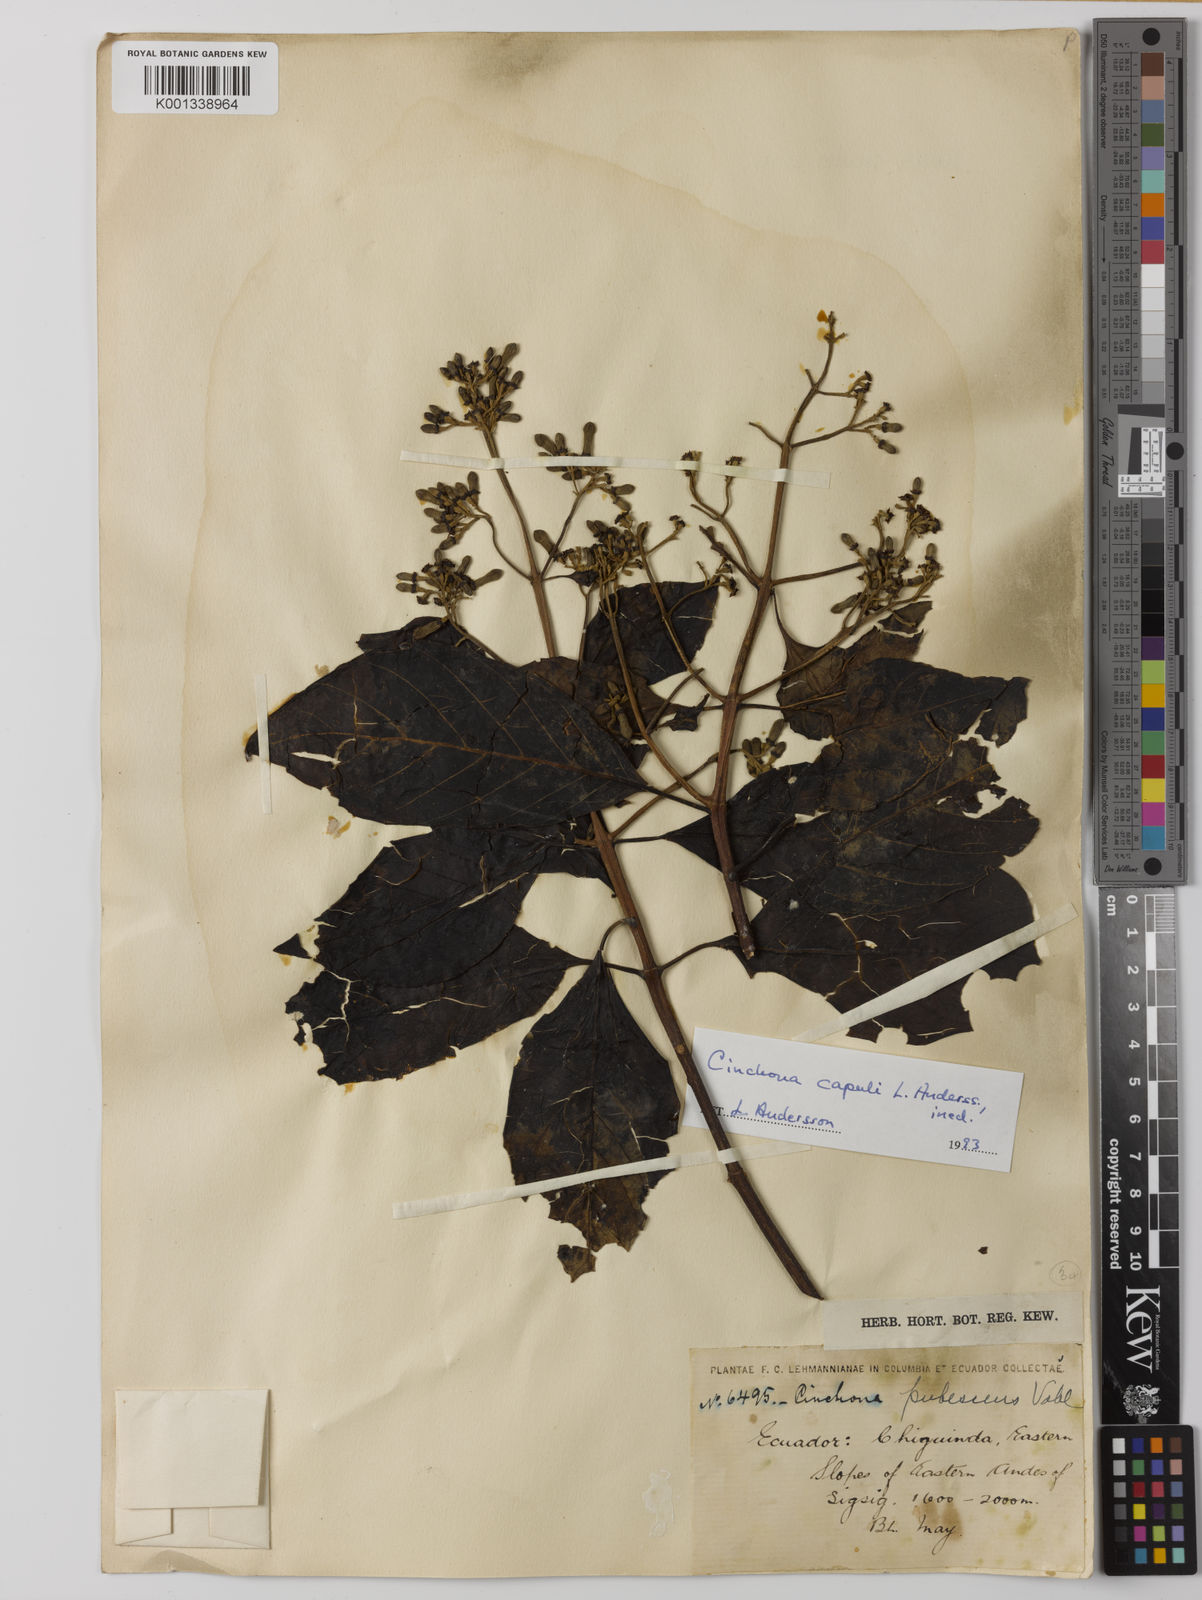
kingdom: Plantae
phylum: Tracheophyta
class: Magnoliopsida
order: Gentianales
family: Rubiaceae
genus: Cinchona
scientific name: Cinchona capuli
